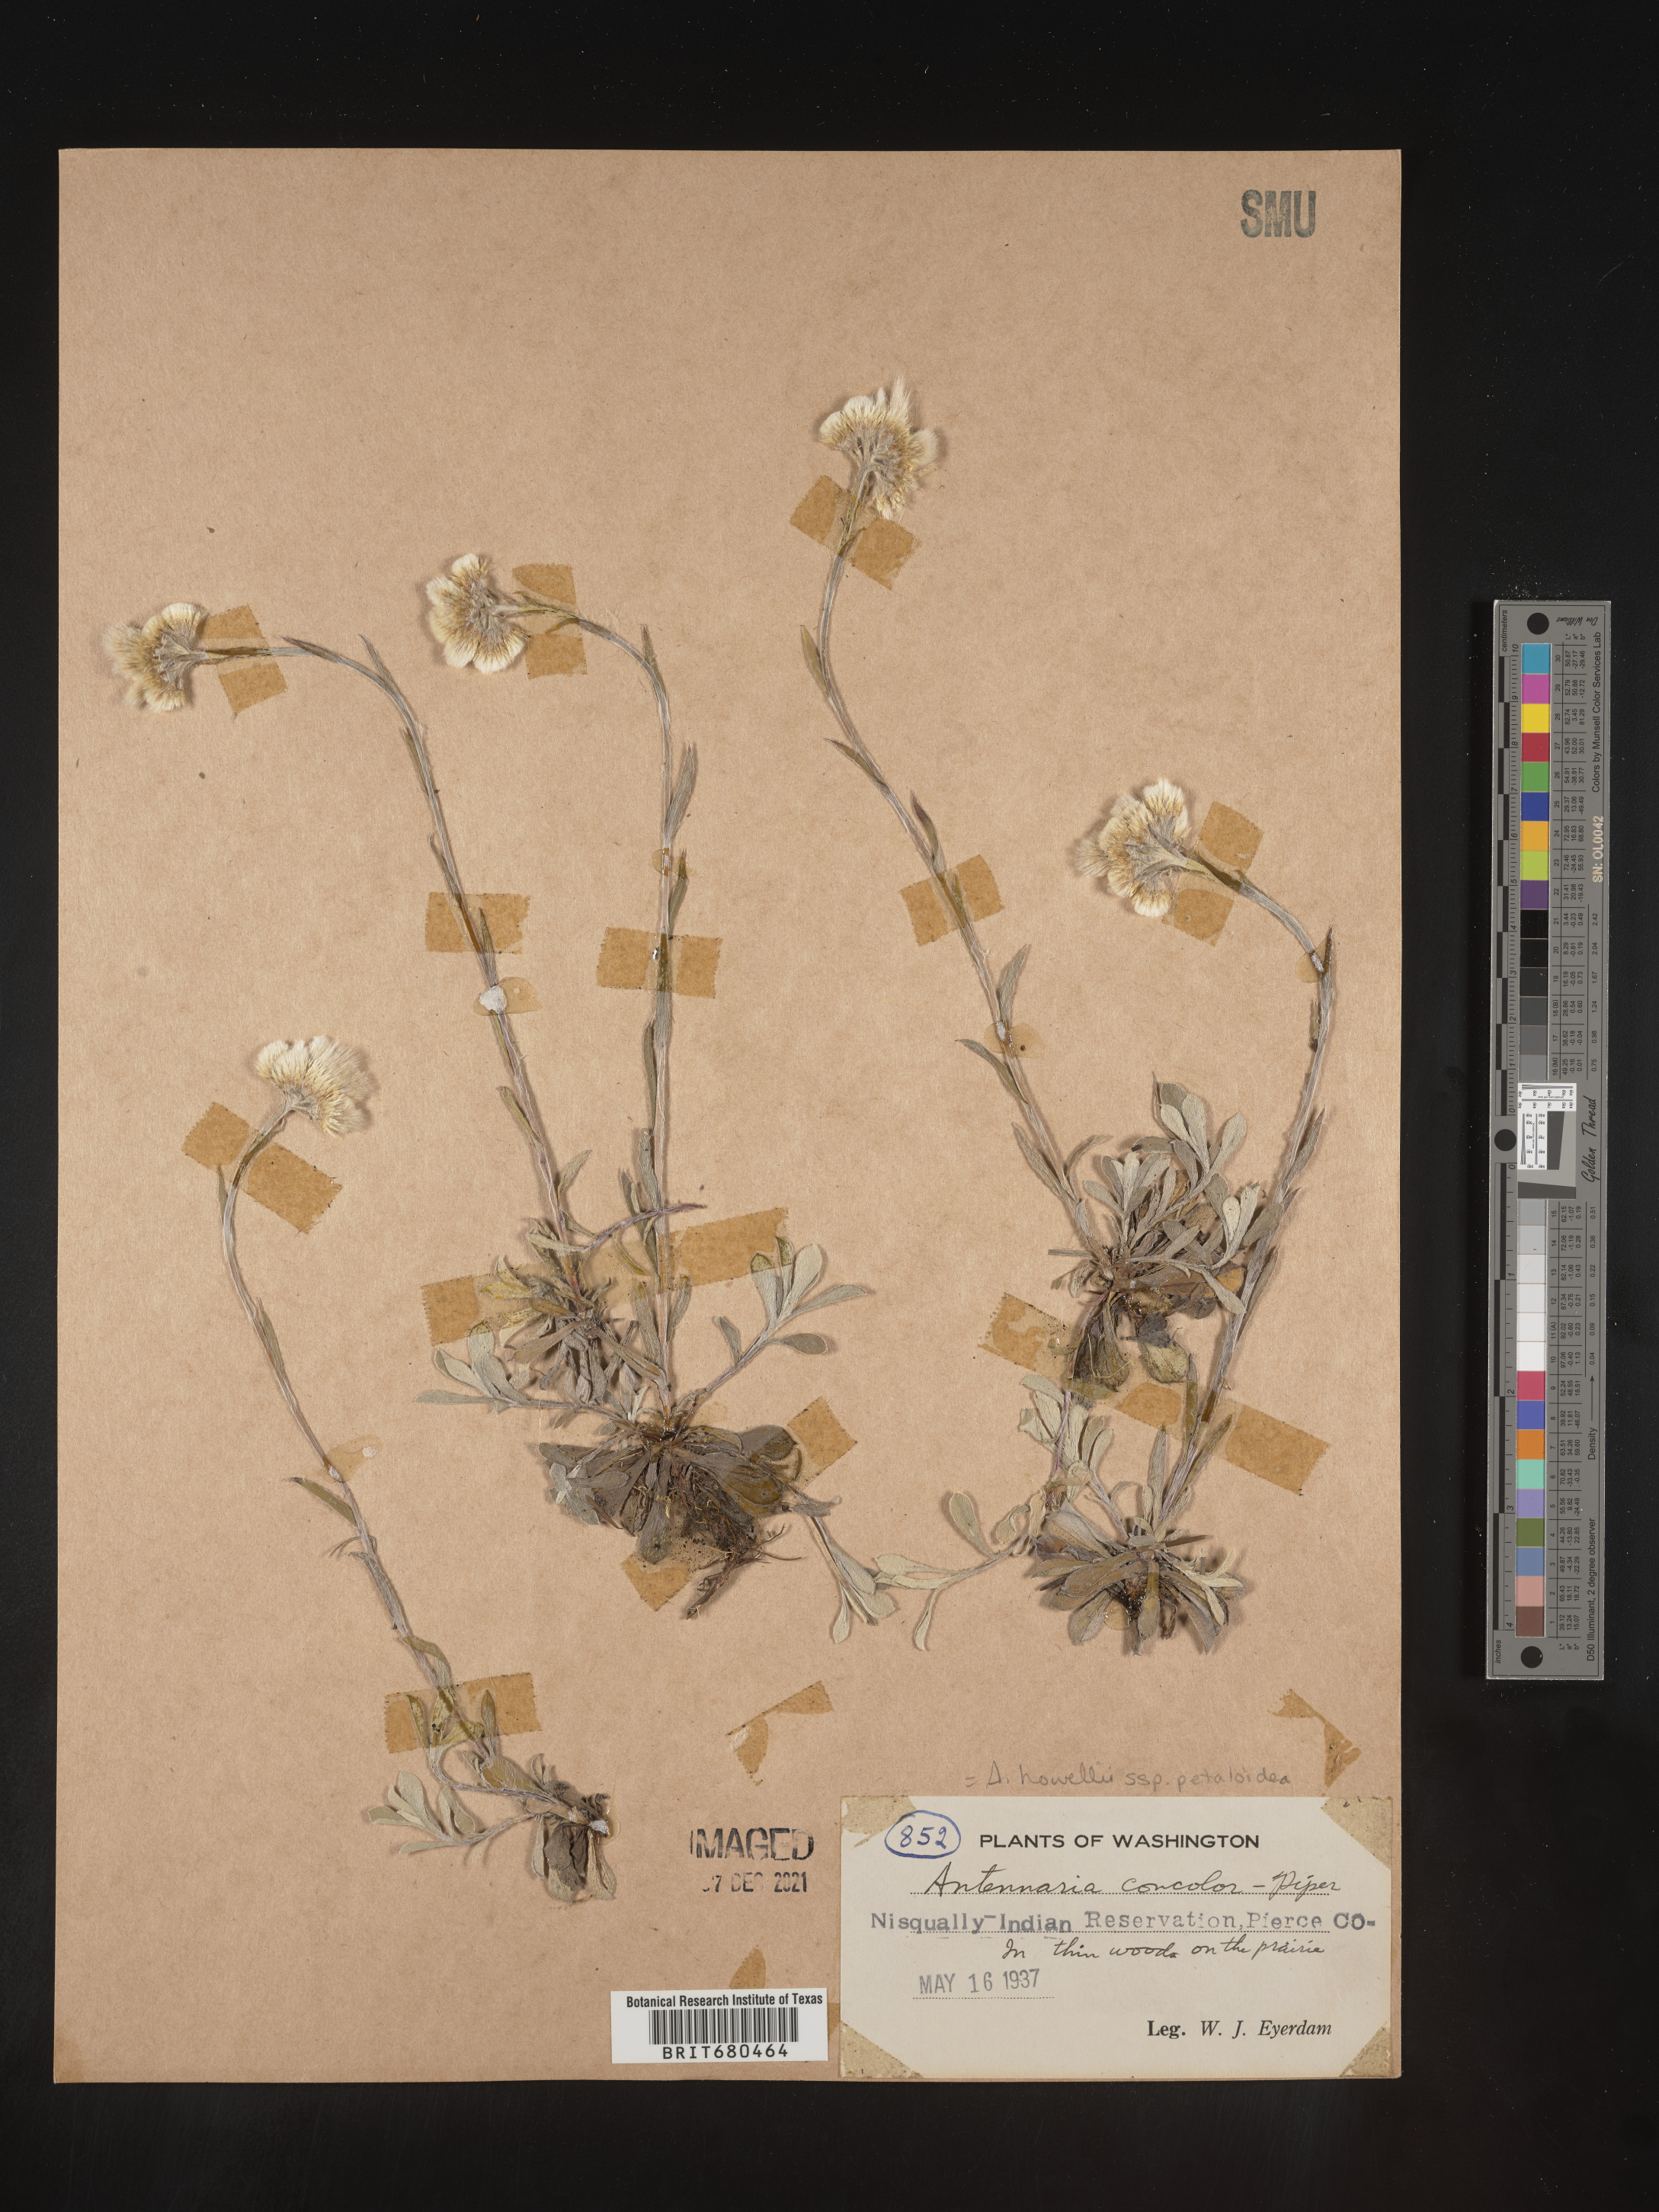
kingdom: Plantae
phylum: Tracheophyta
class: Magnoliopsida
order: Asterales
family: Asteraceae
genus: Antennaria
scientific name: Antennaria rosea
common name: Rosy pussytoes
